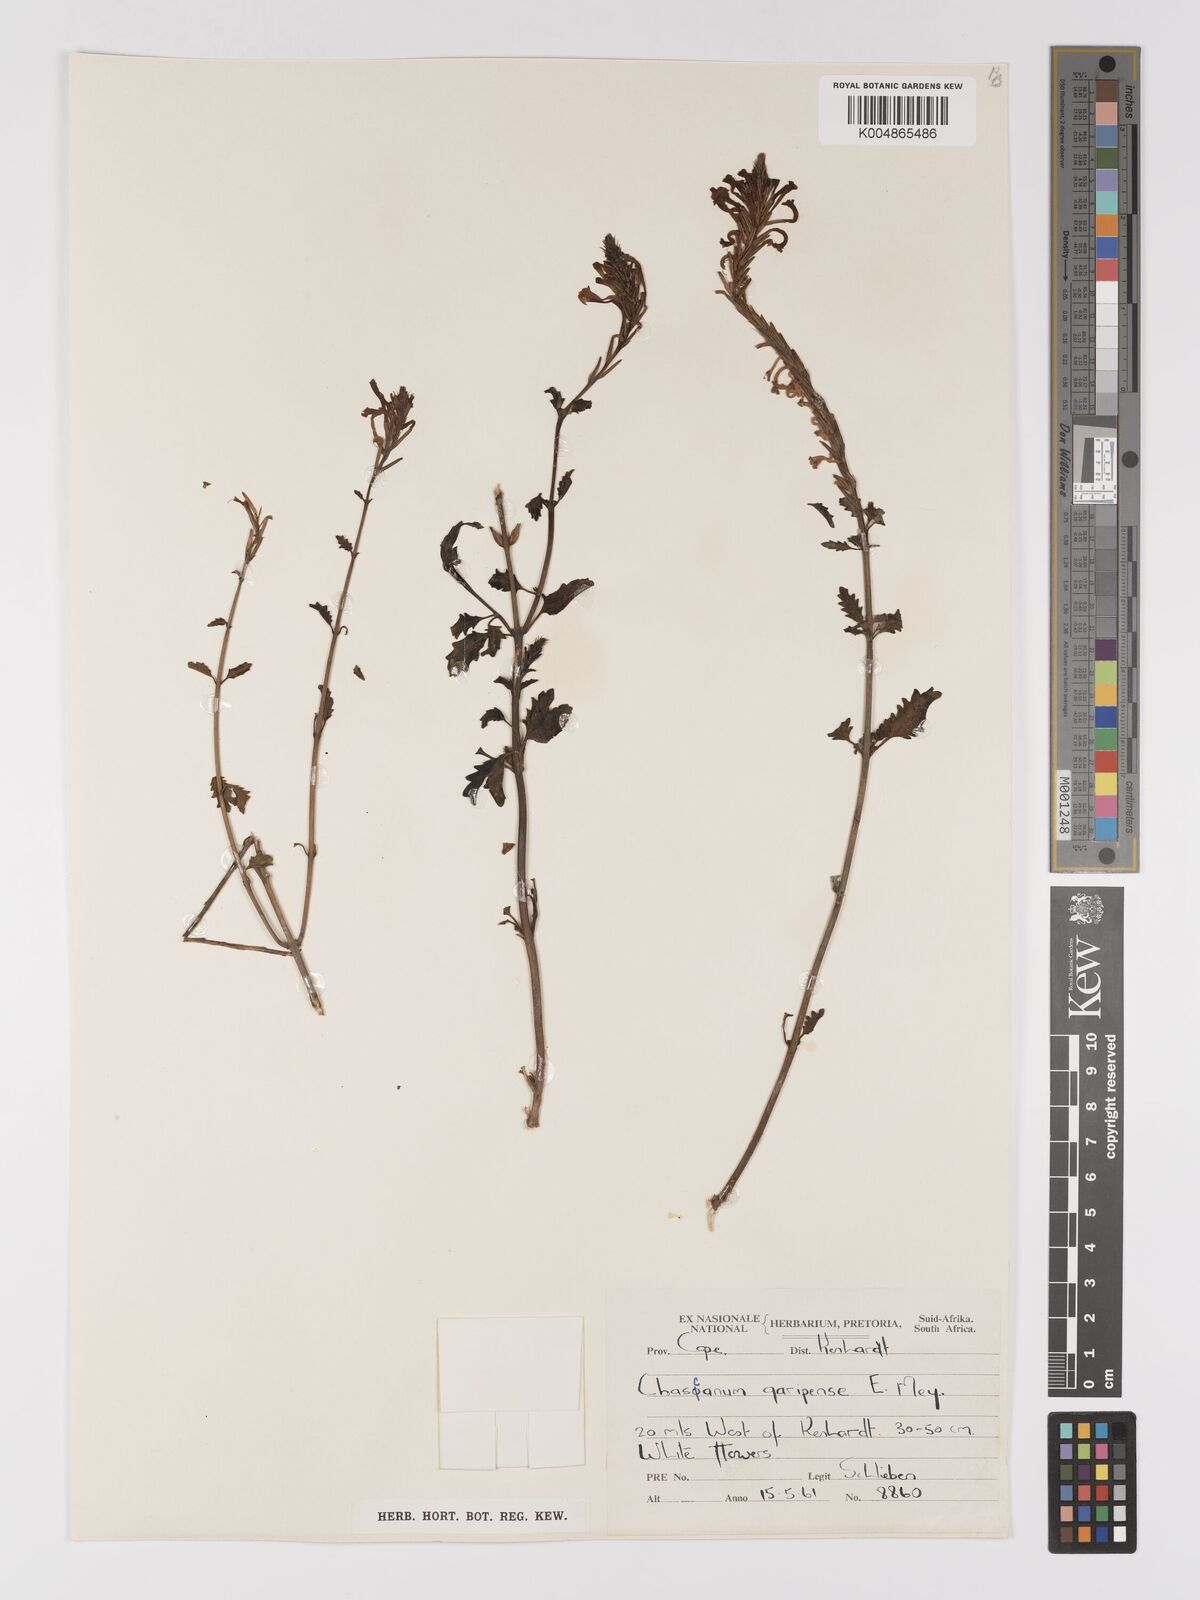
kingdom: Plantae
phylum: Tracheophyta
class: Magnoliopsida
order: Lamiales
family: Verbenaceae
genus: Chascanum
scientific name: Chascanum garipense
